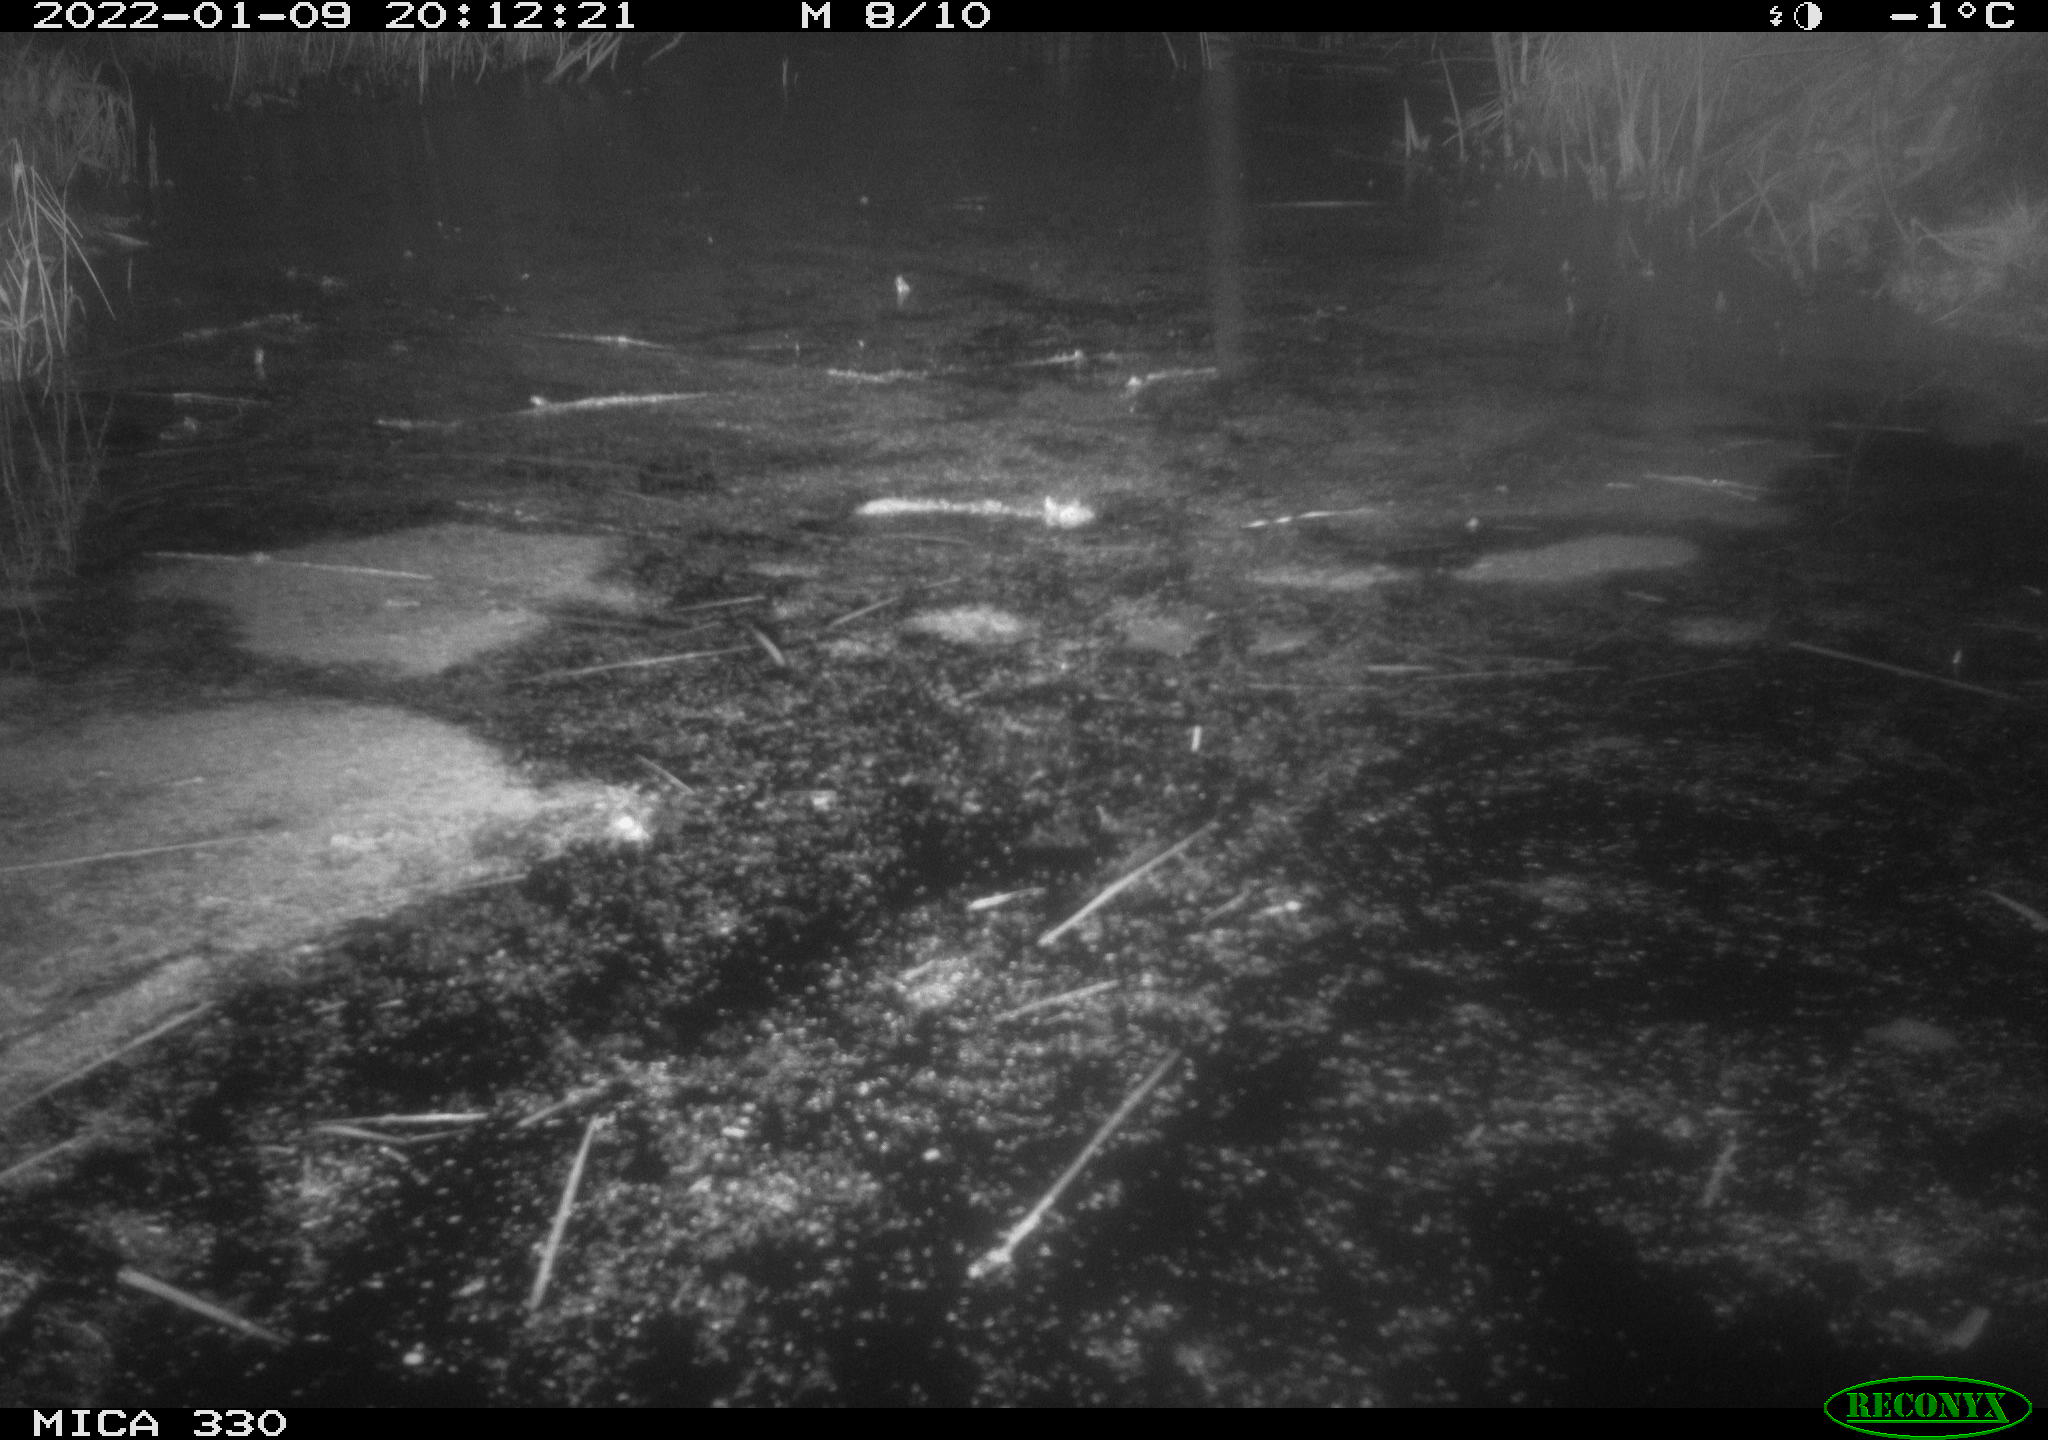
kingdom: Animalia
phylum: Chordata
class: Aves
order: Gruiformes
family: Rallidae
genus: Gallinula
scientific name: Gallinula chloropus
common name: Common moorhen
